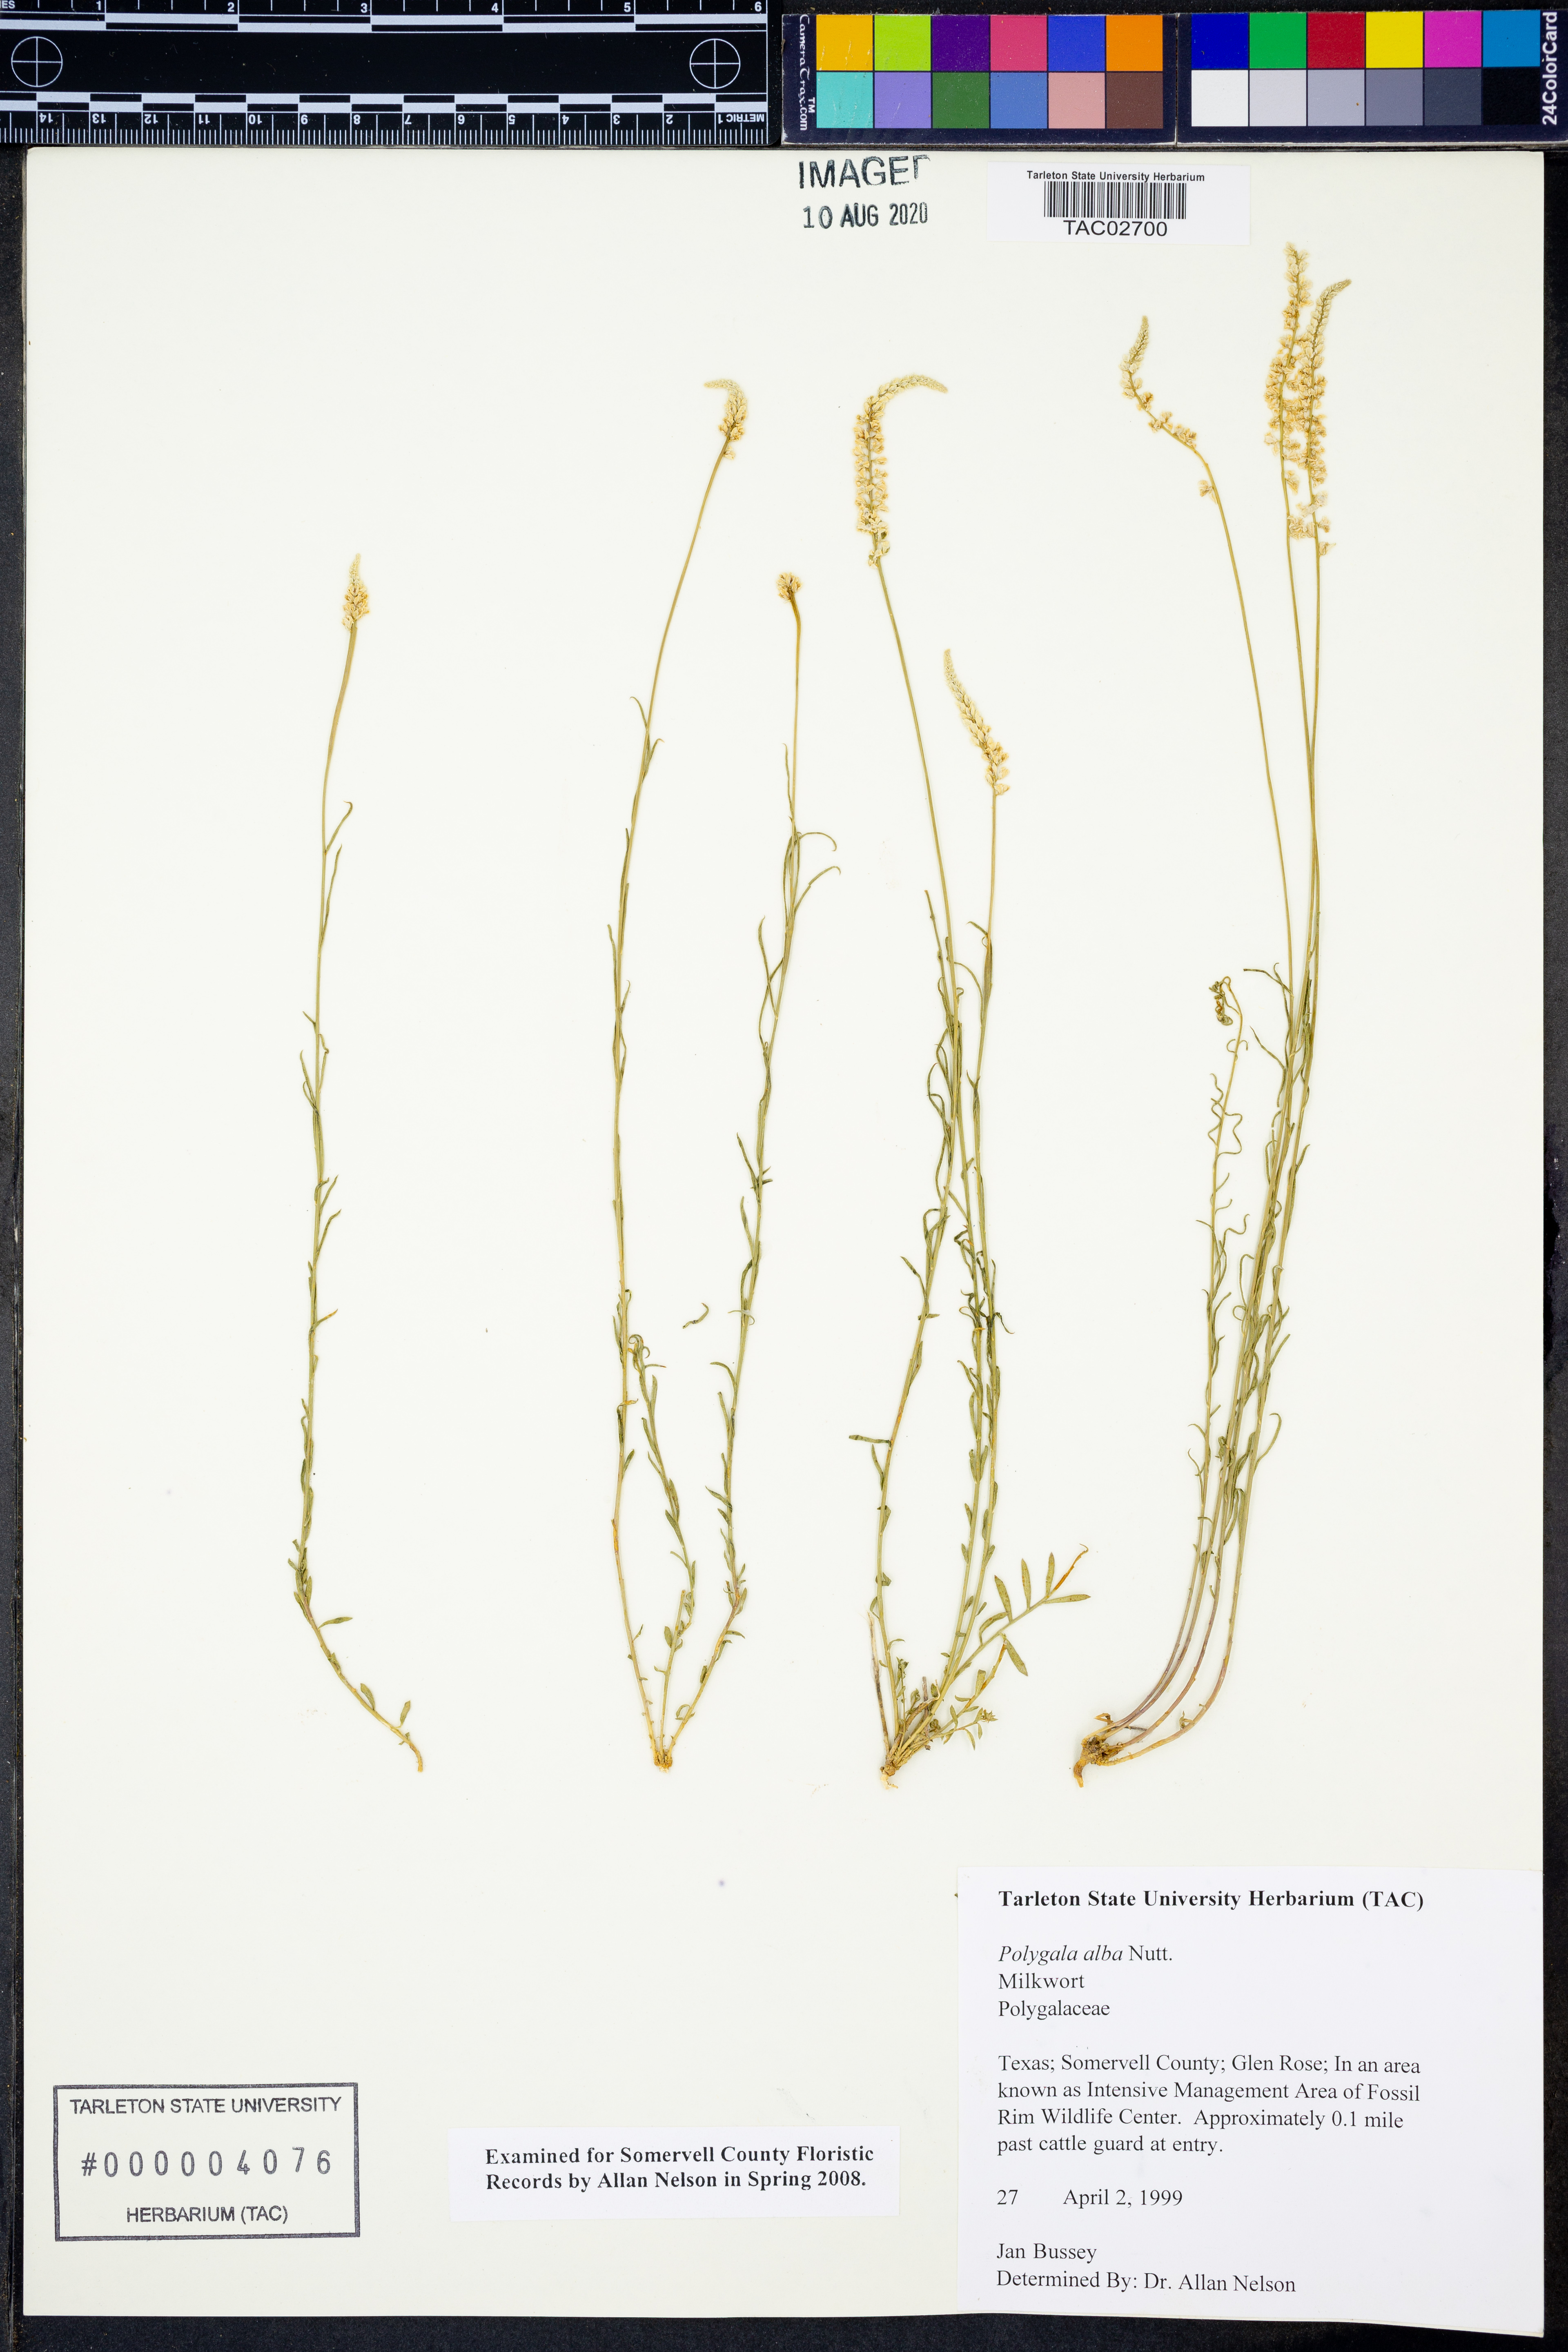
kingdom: Plantae
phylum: Tracheophyta
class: Magnoliopsida
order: Fabales
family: Polygalaceae
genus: Polygala
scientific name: Polygala alba
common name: White milkwort
